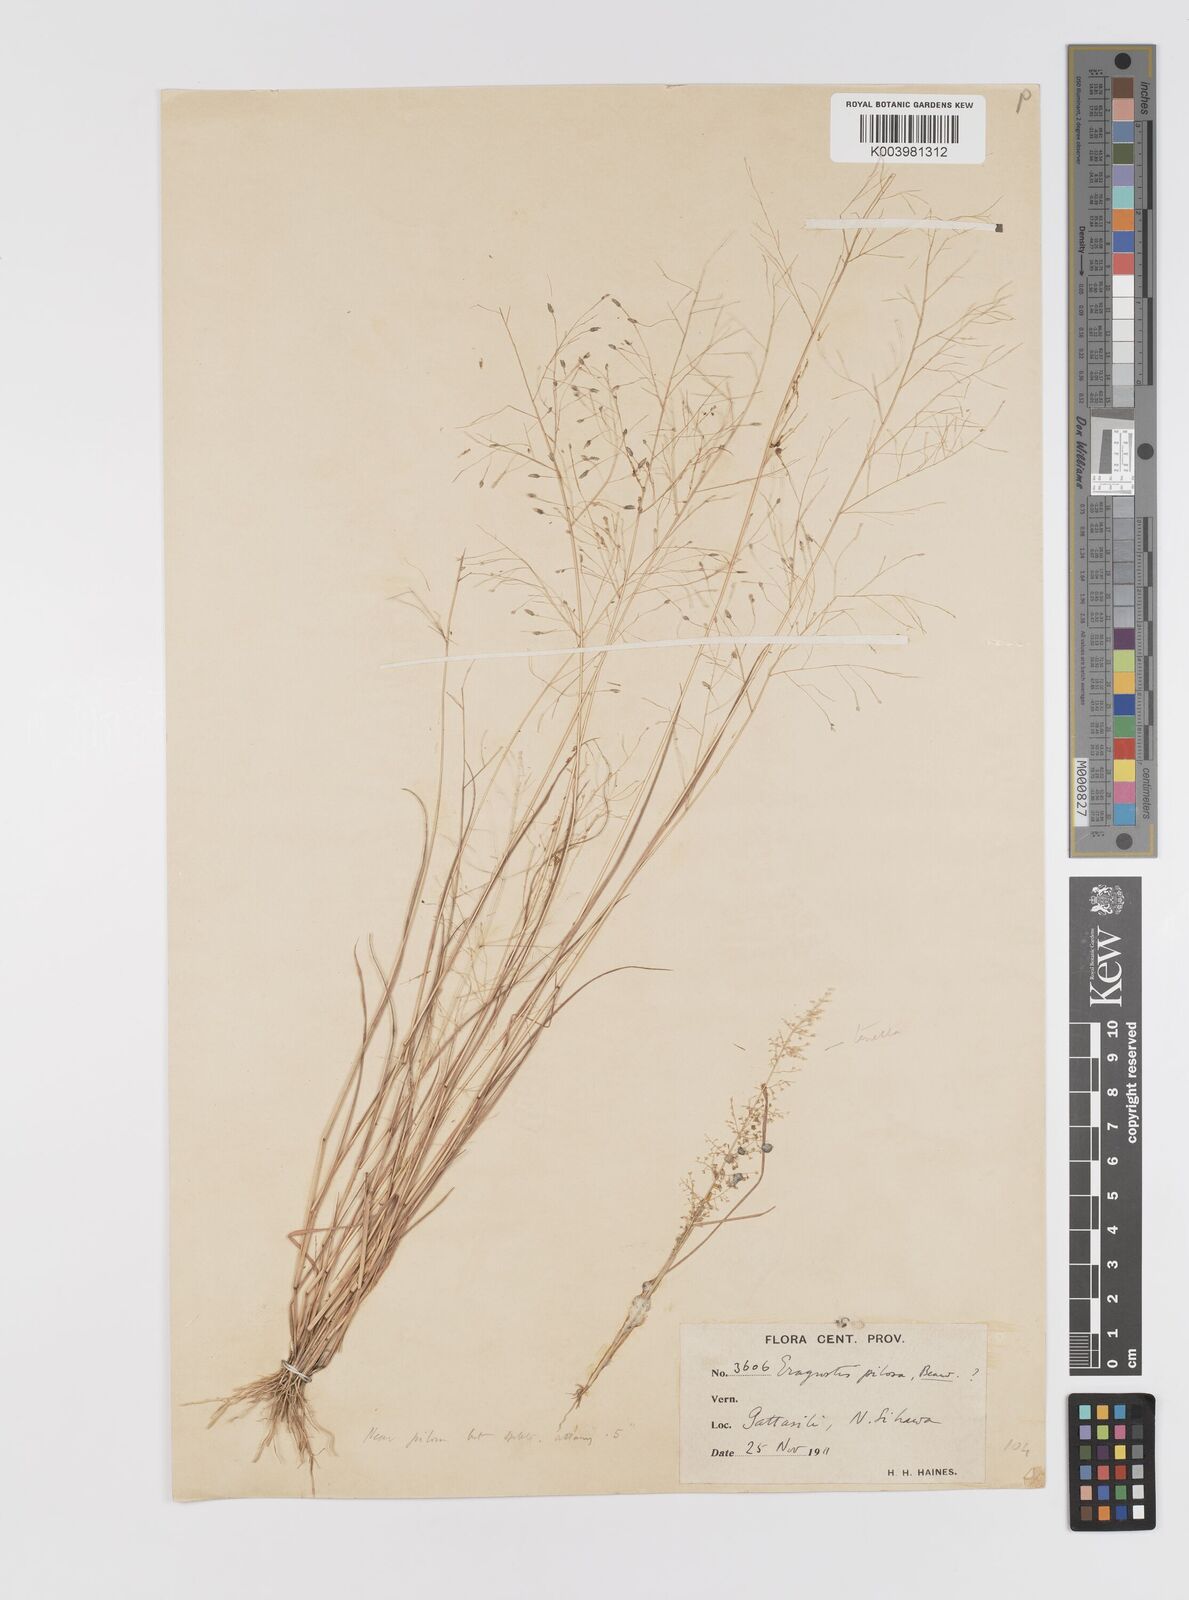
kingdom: Plantae
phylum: Tracheophyta
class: Liliopsida
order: Poales
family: Poaceae
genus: Eragrostis
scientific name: Eragrostis gangetica
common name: Slimflower lovegrass
